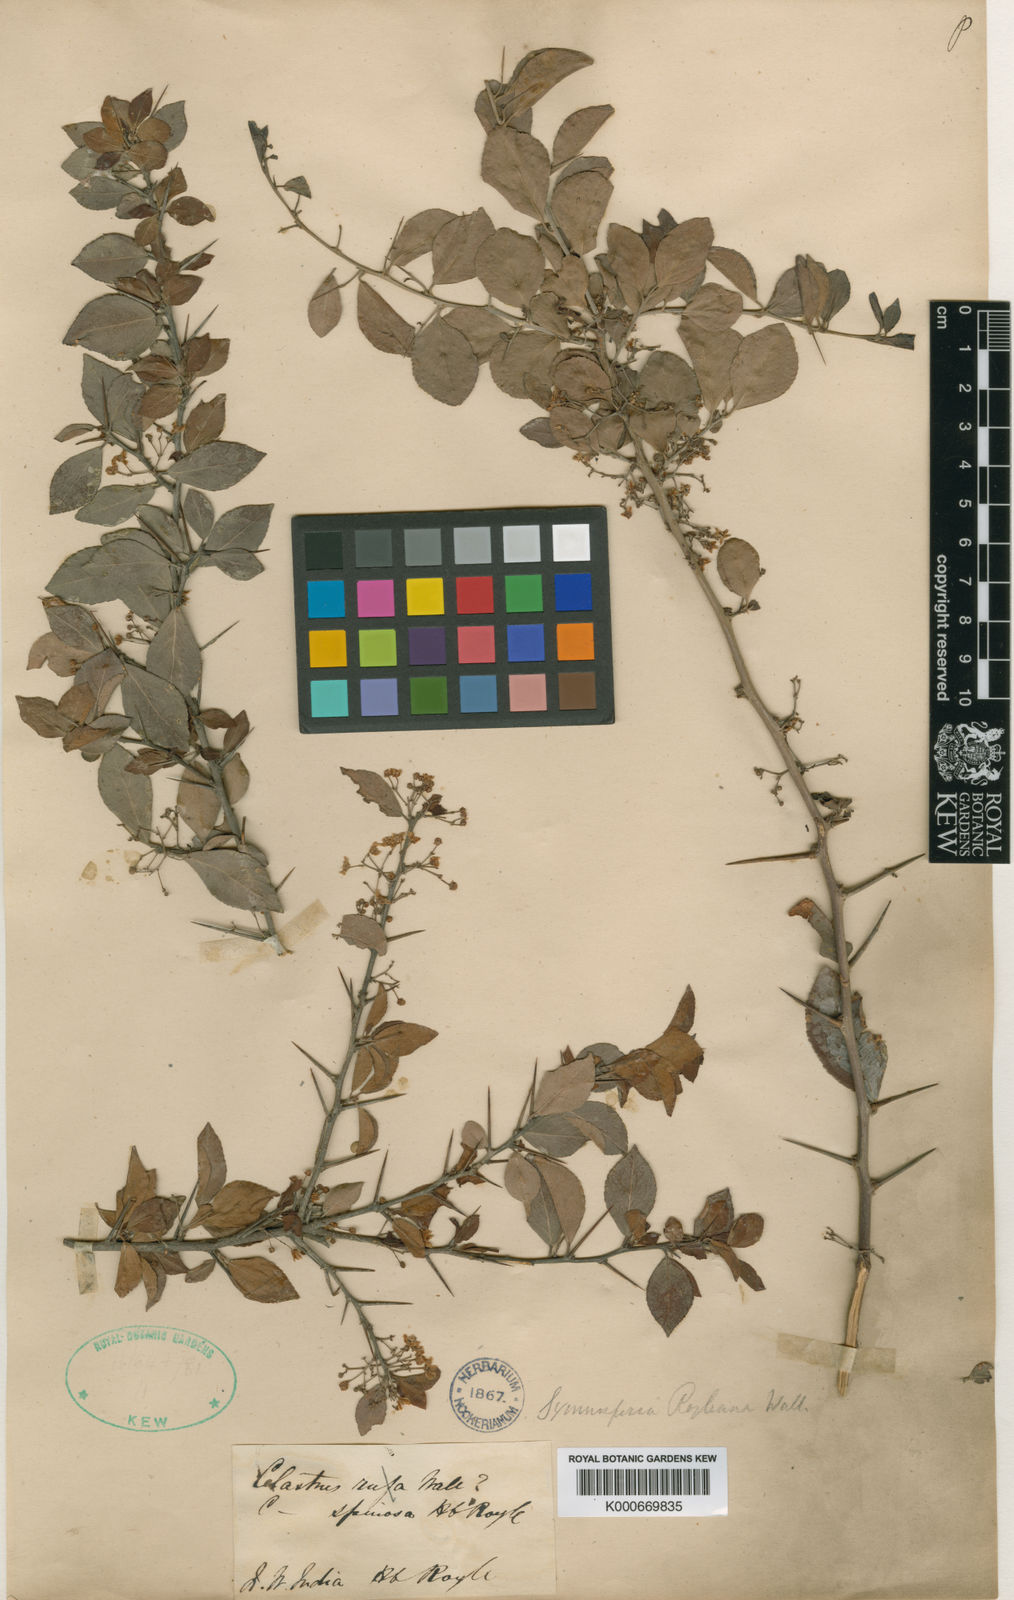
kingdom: Plantae
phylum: Tracheophyta
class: Magnoliopsida
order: Celastrales
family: Celastraceae
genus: Gymnosporia
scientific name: Gymnosporia royleana
